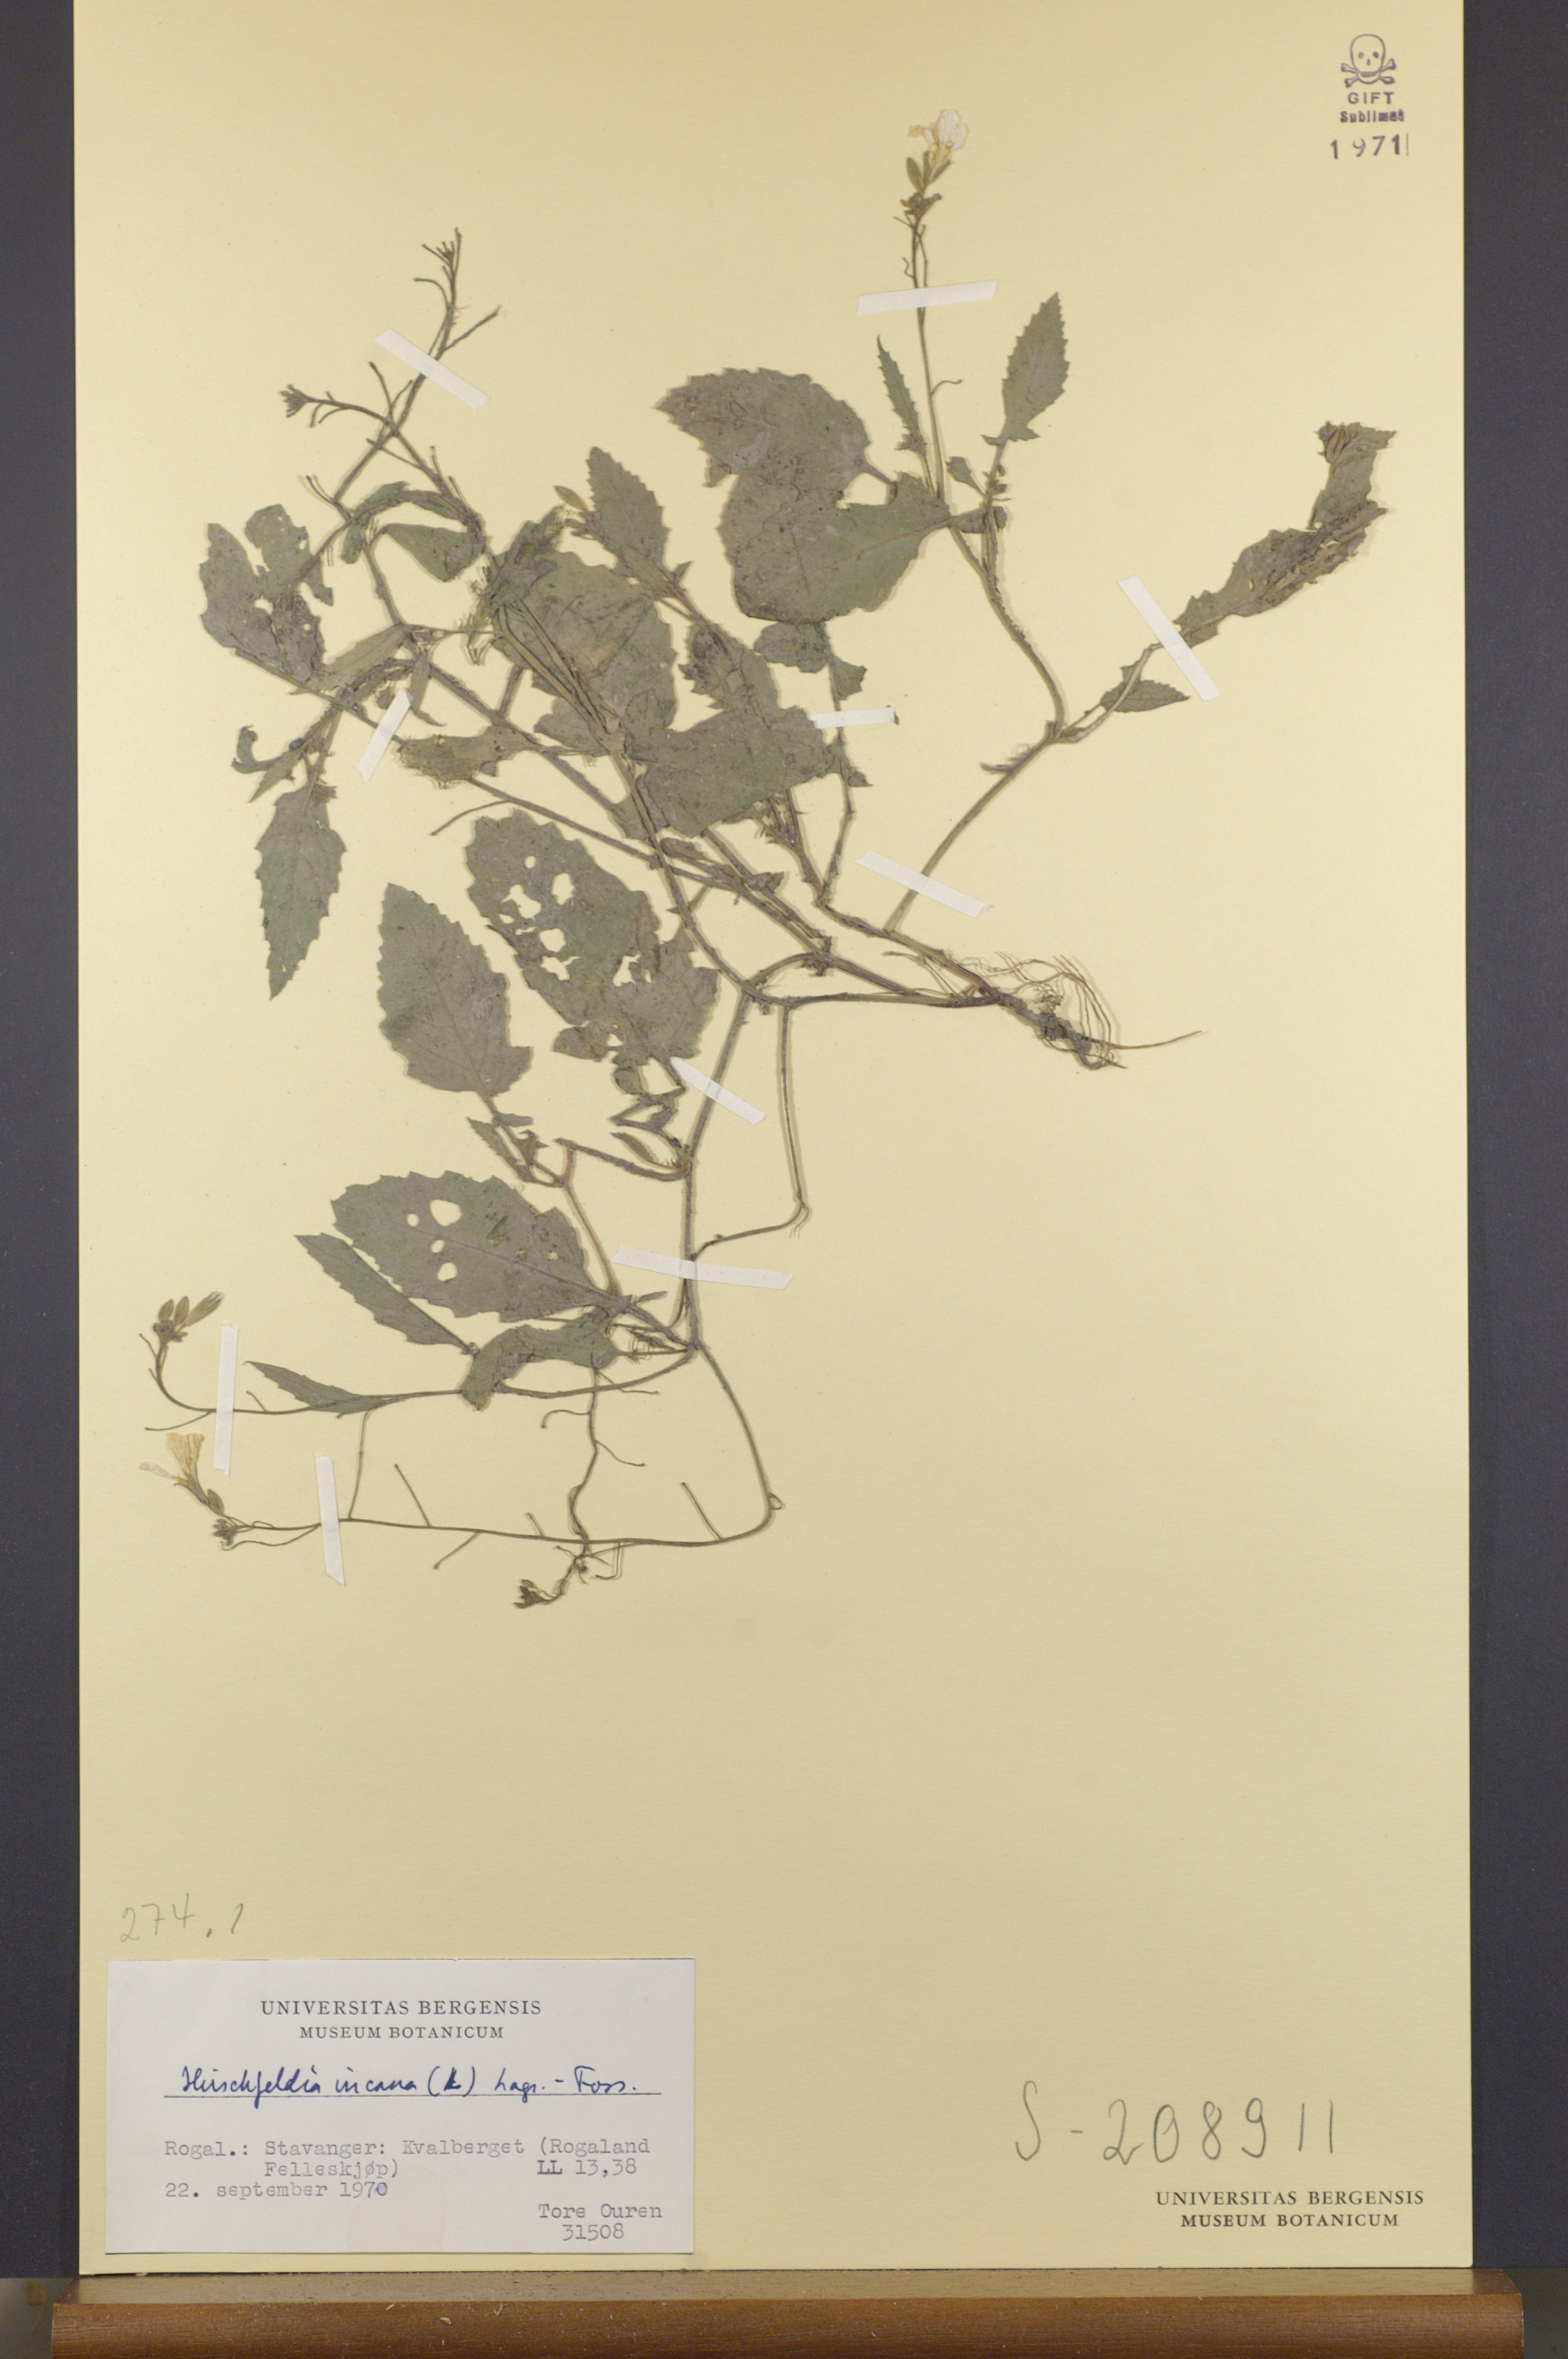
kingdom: Plantae
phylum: Tracheophyta
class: Magnoliopsida
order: Brassicales
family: Brassicaceae
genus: Hirschfeldia
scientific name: Hirschfeldia incana
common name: Hoary mustard
